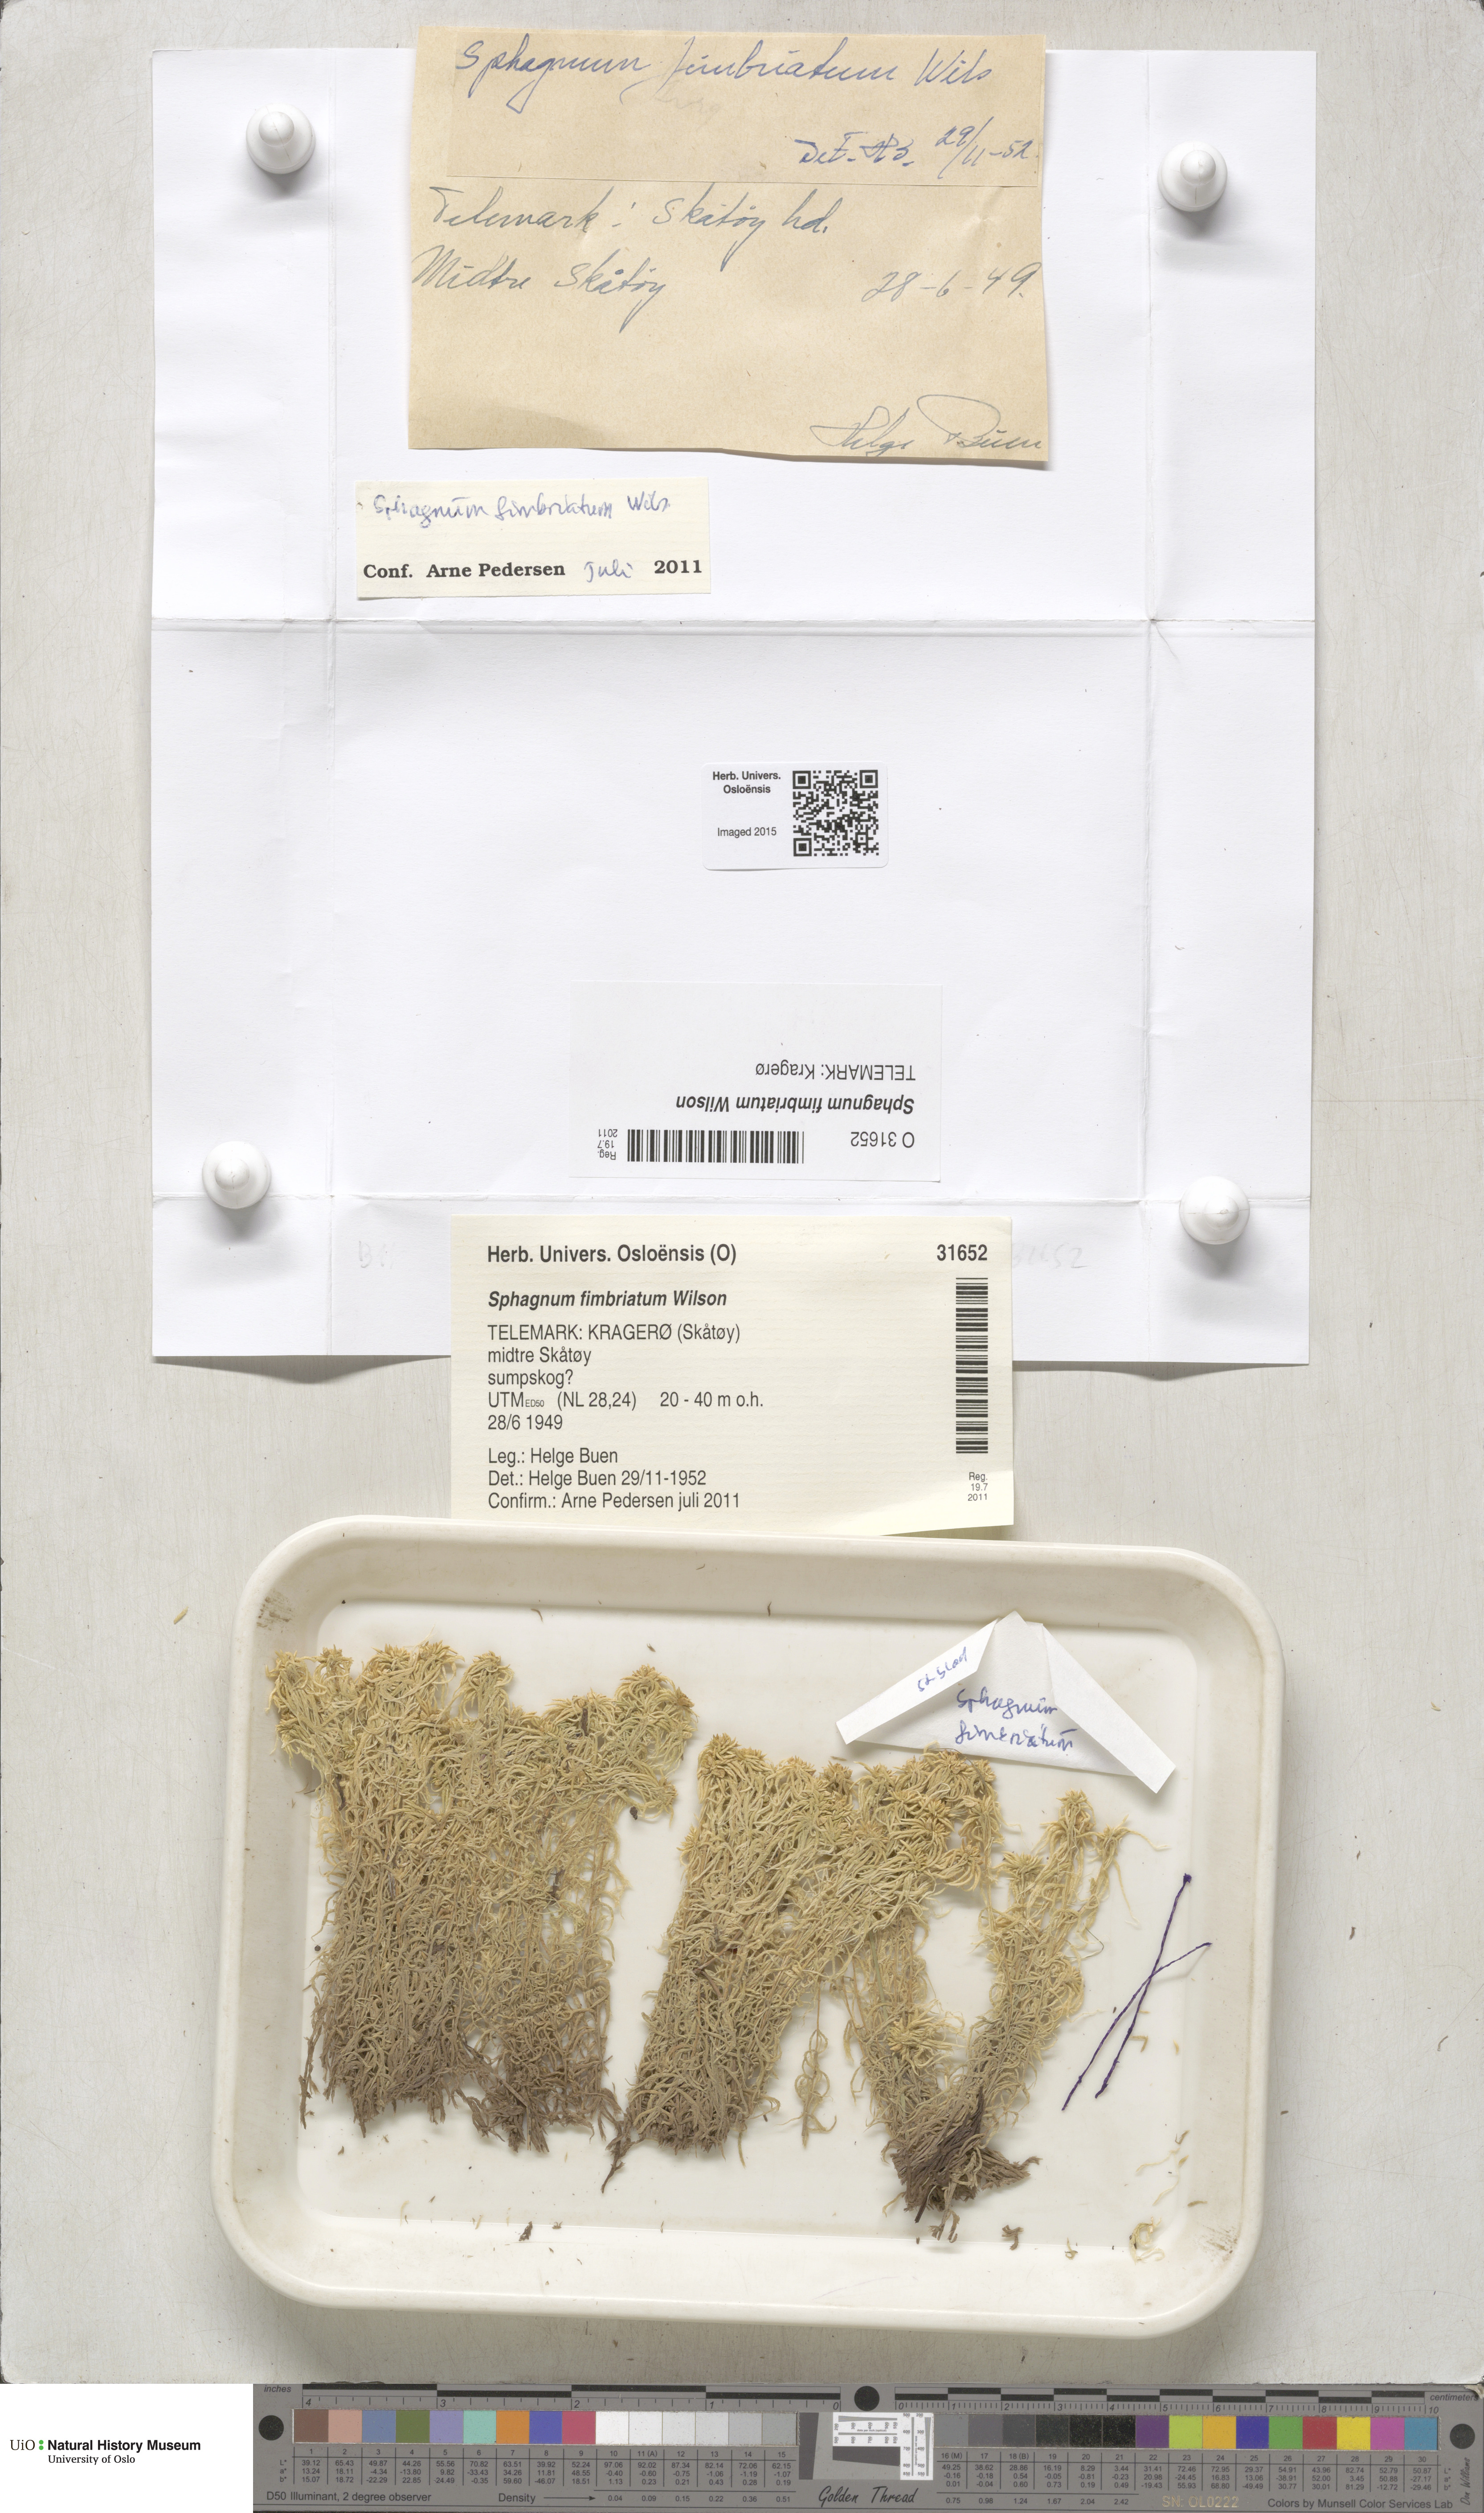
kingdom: Plantae
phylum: Bryophyta
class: Sphagnopsida
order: Sphagnales
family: Sphagnaceae
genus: Sphagnum
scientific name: Sphagnum fimbriatum
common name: Fringed peat moss
